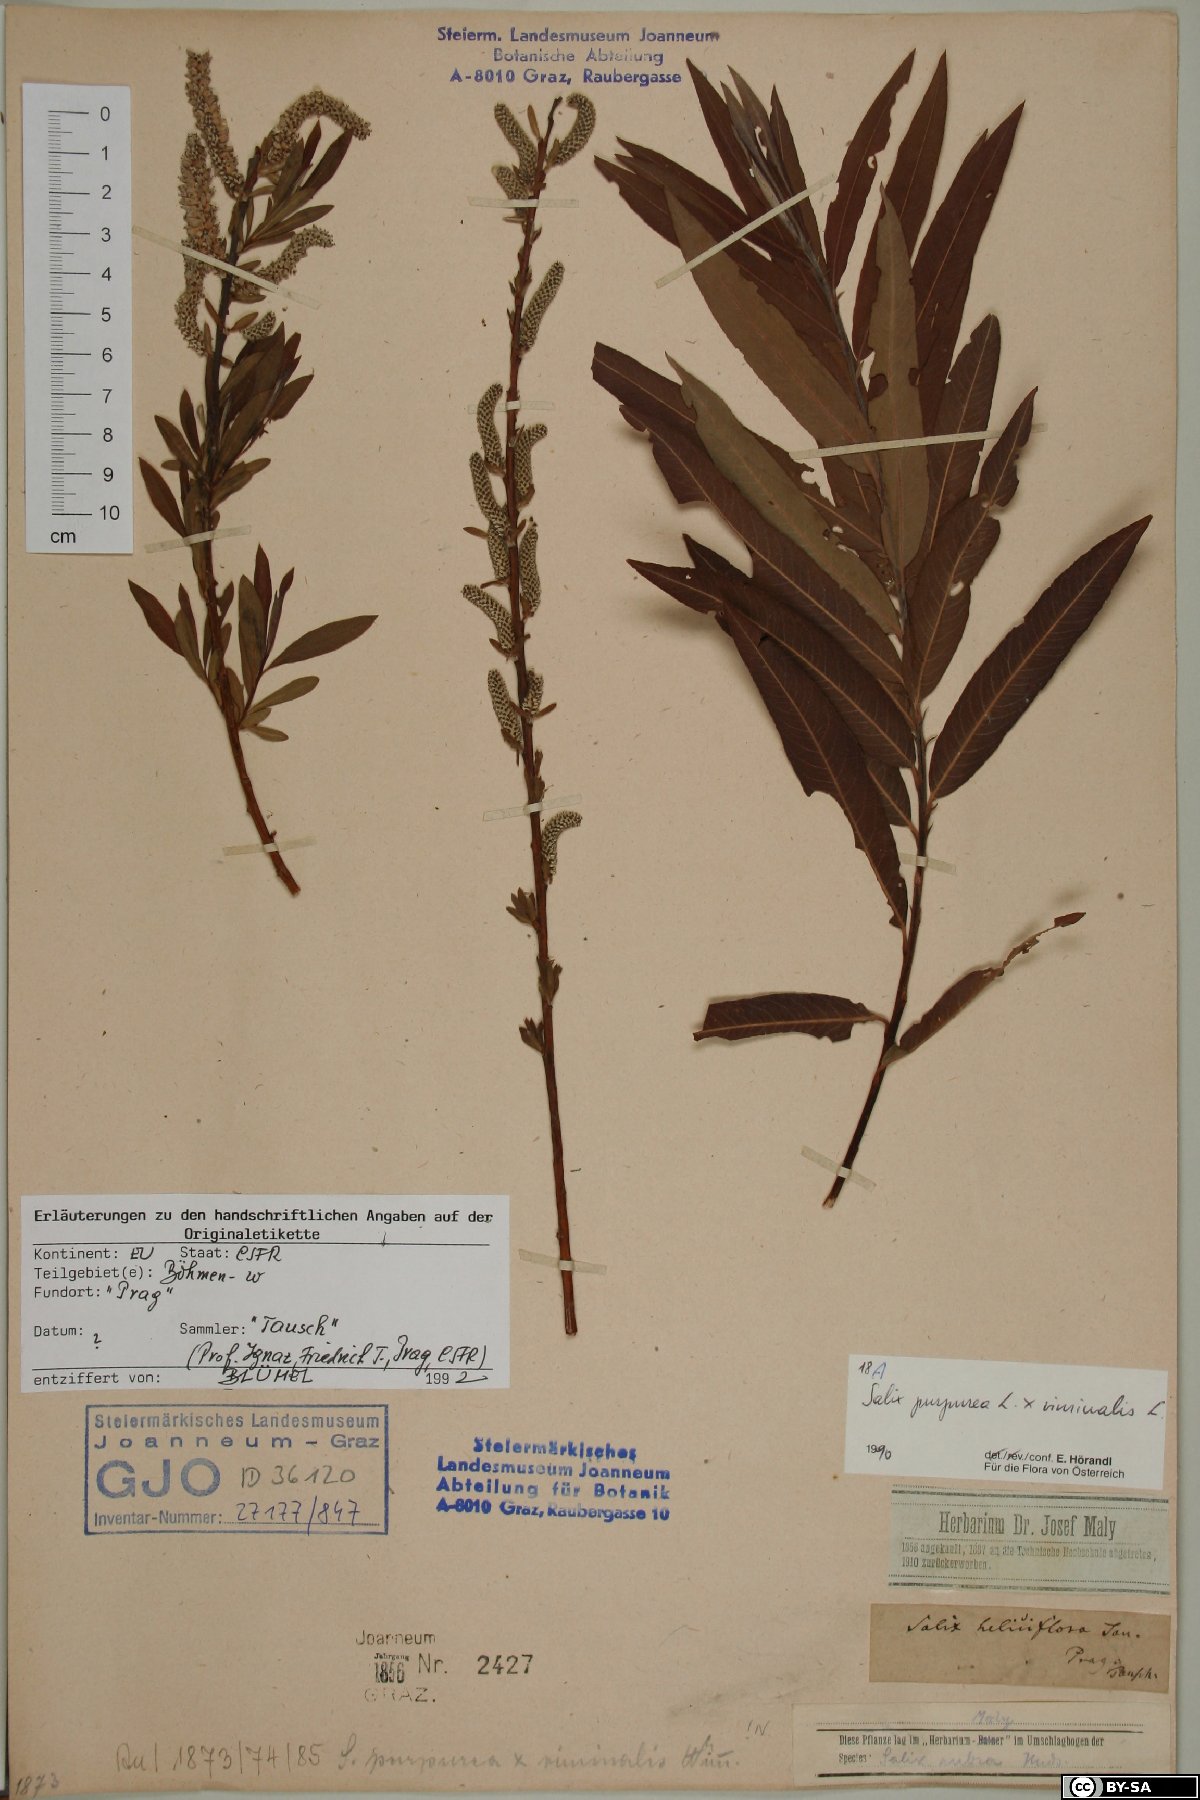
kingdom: Plantae
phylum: Tracheophyta
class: Magnoliopsida
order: Malpighiales
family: Salicaceae
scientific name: Salicaceae
